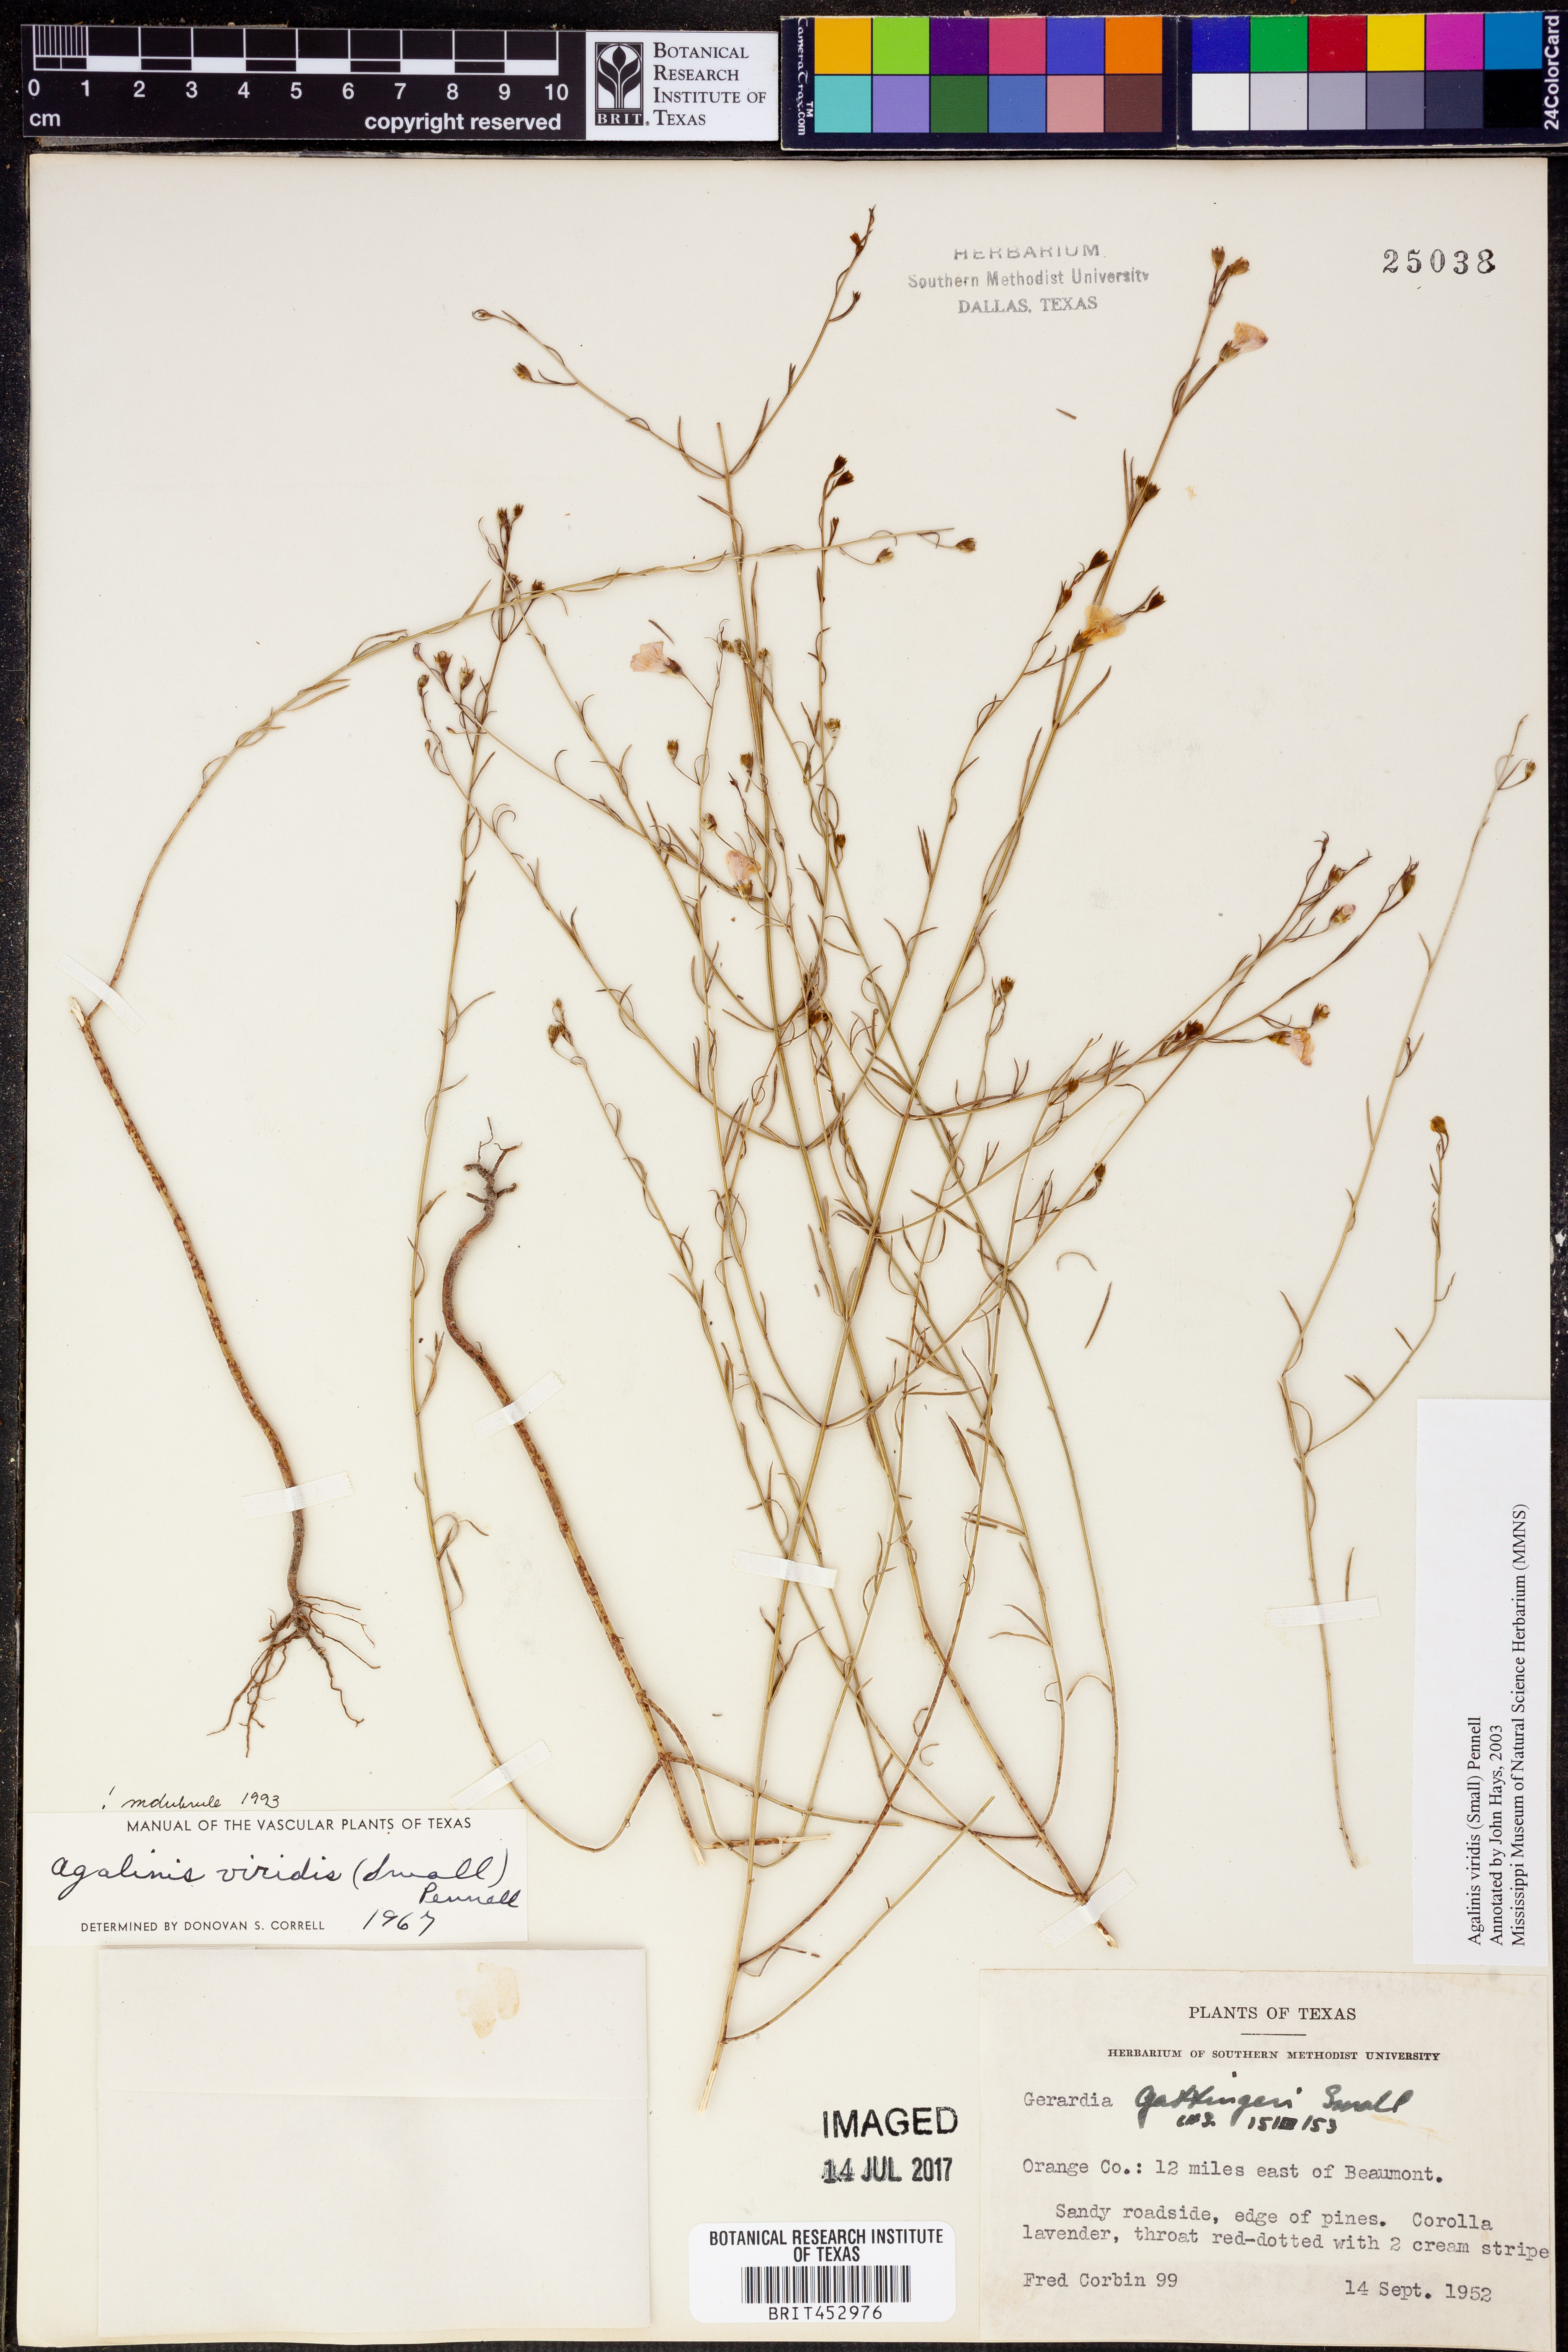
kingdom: Plantae
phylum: Tracheophyta
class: Magnoliopsida
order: Lamiales
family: Orobanchaceae
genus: Agalinis
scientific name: Agalinis viridis
